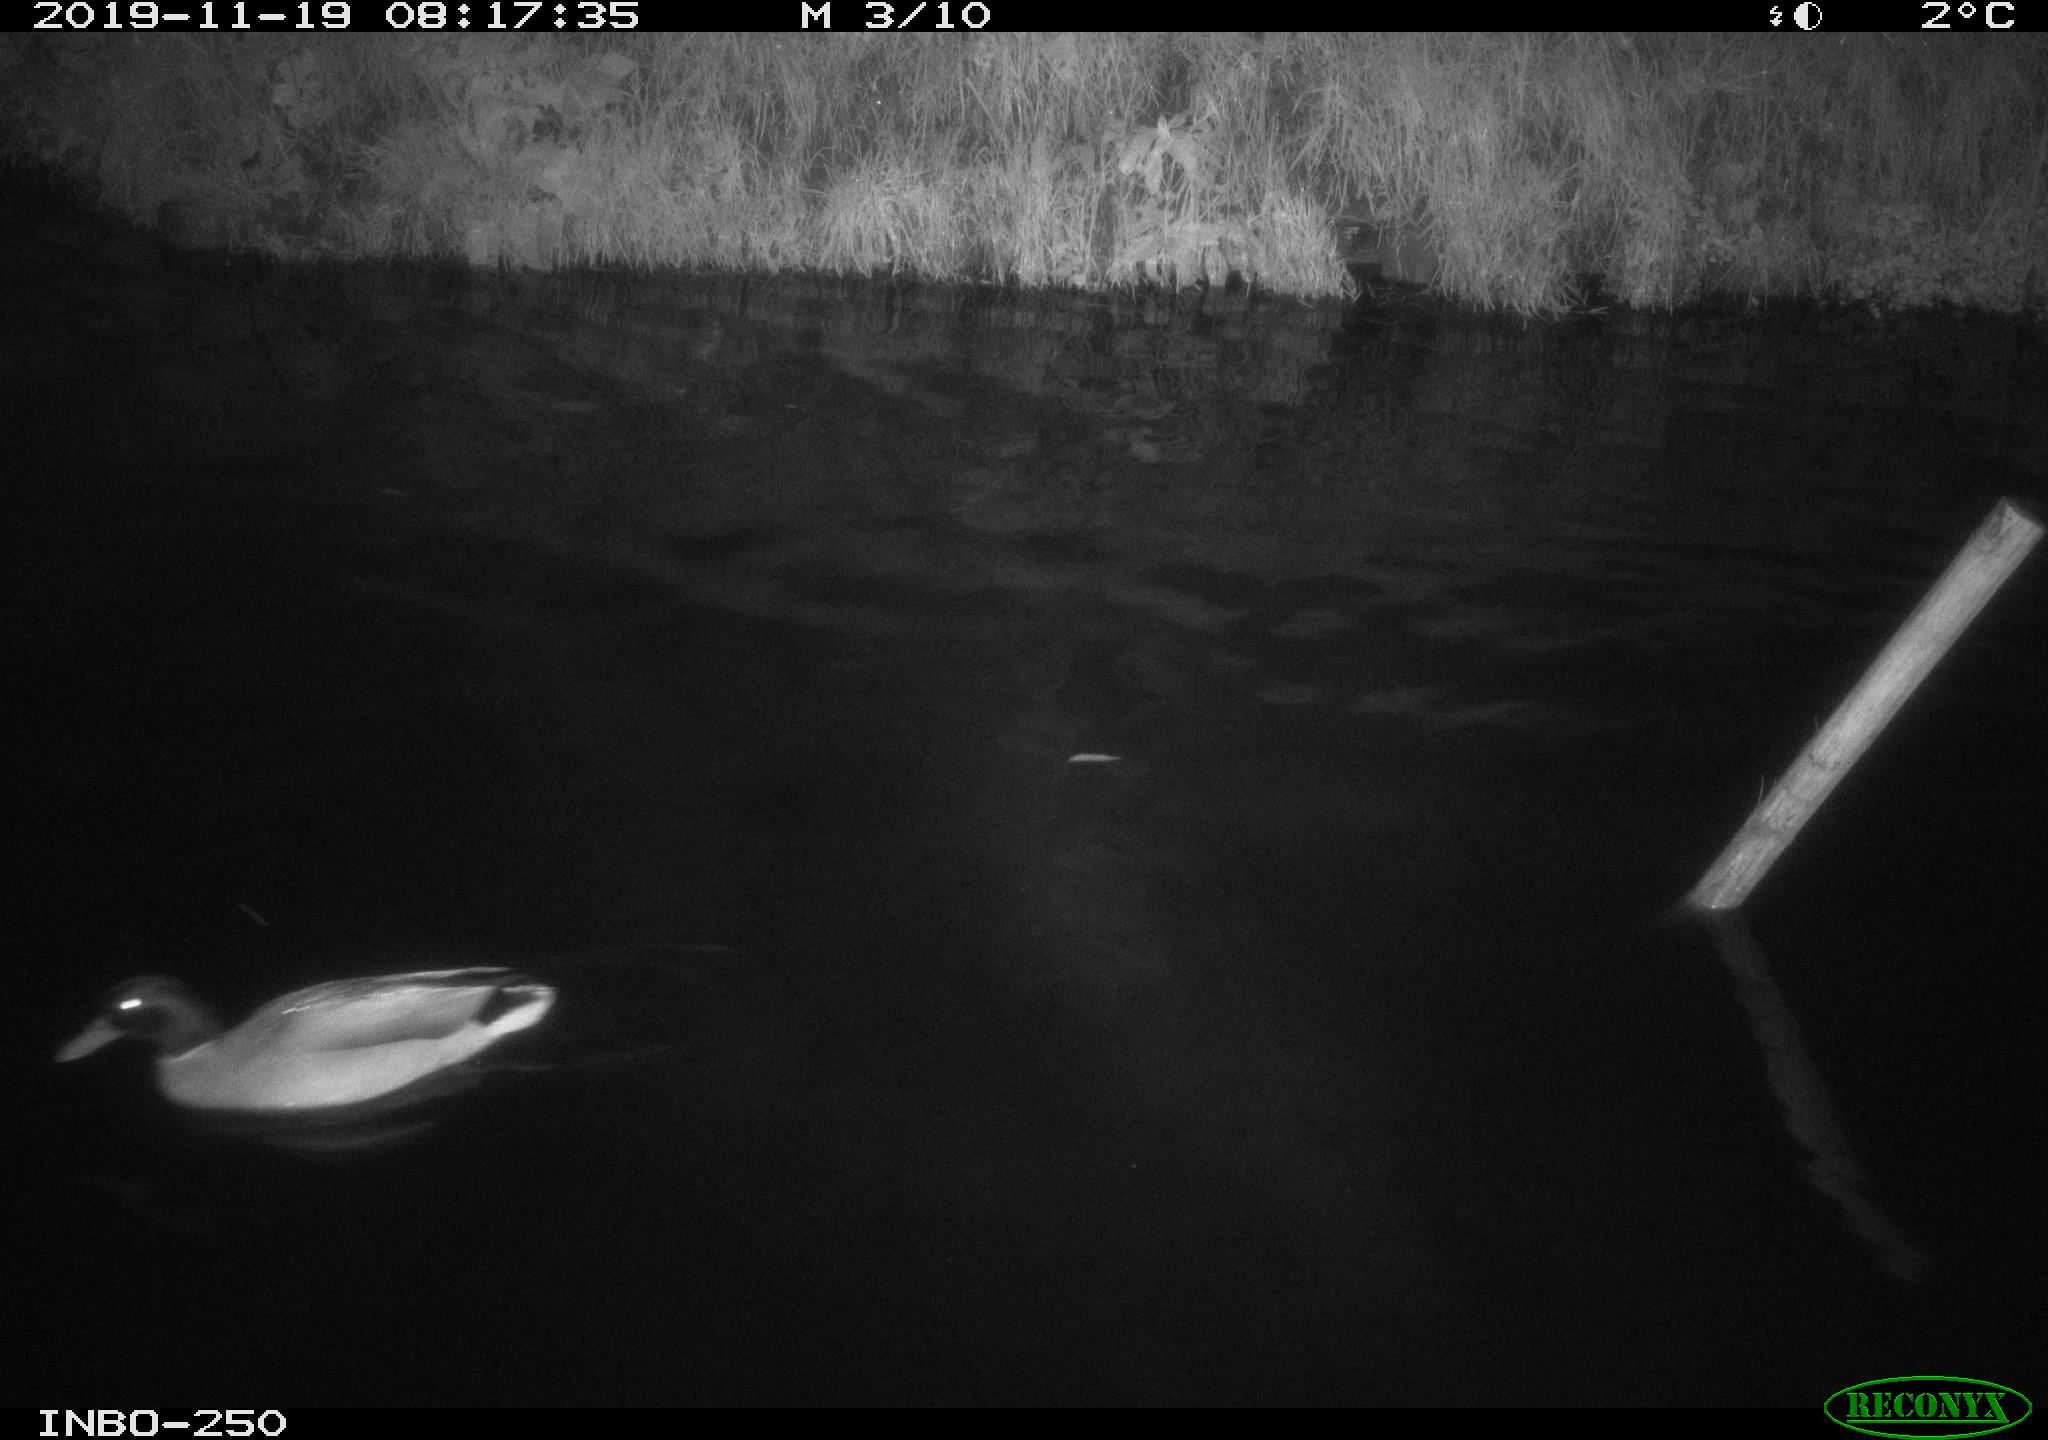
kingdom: Animalia
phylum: Chordata
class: Aves
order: Gruiformes
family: Rallidae
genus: Gallinula
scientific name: Gallinula chloropus
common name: Common moorhen
